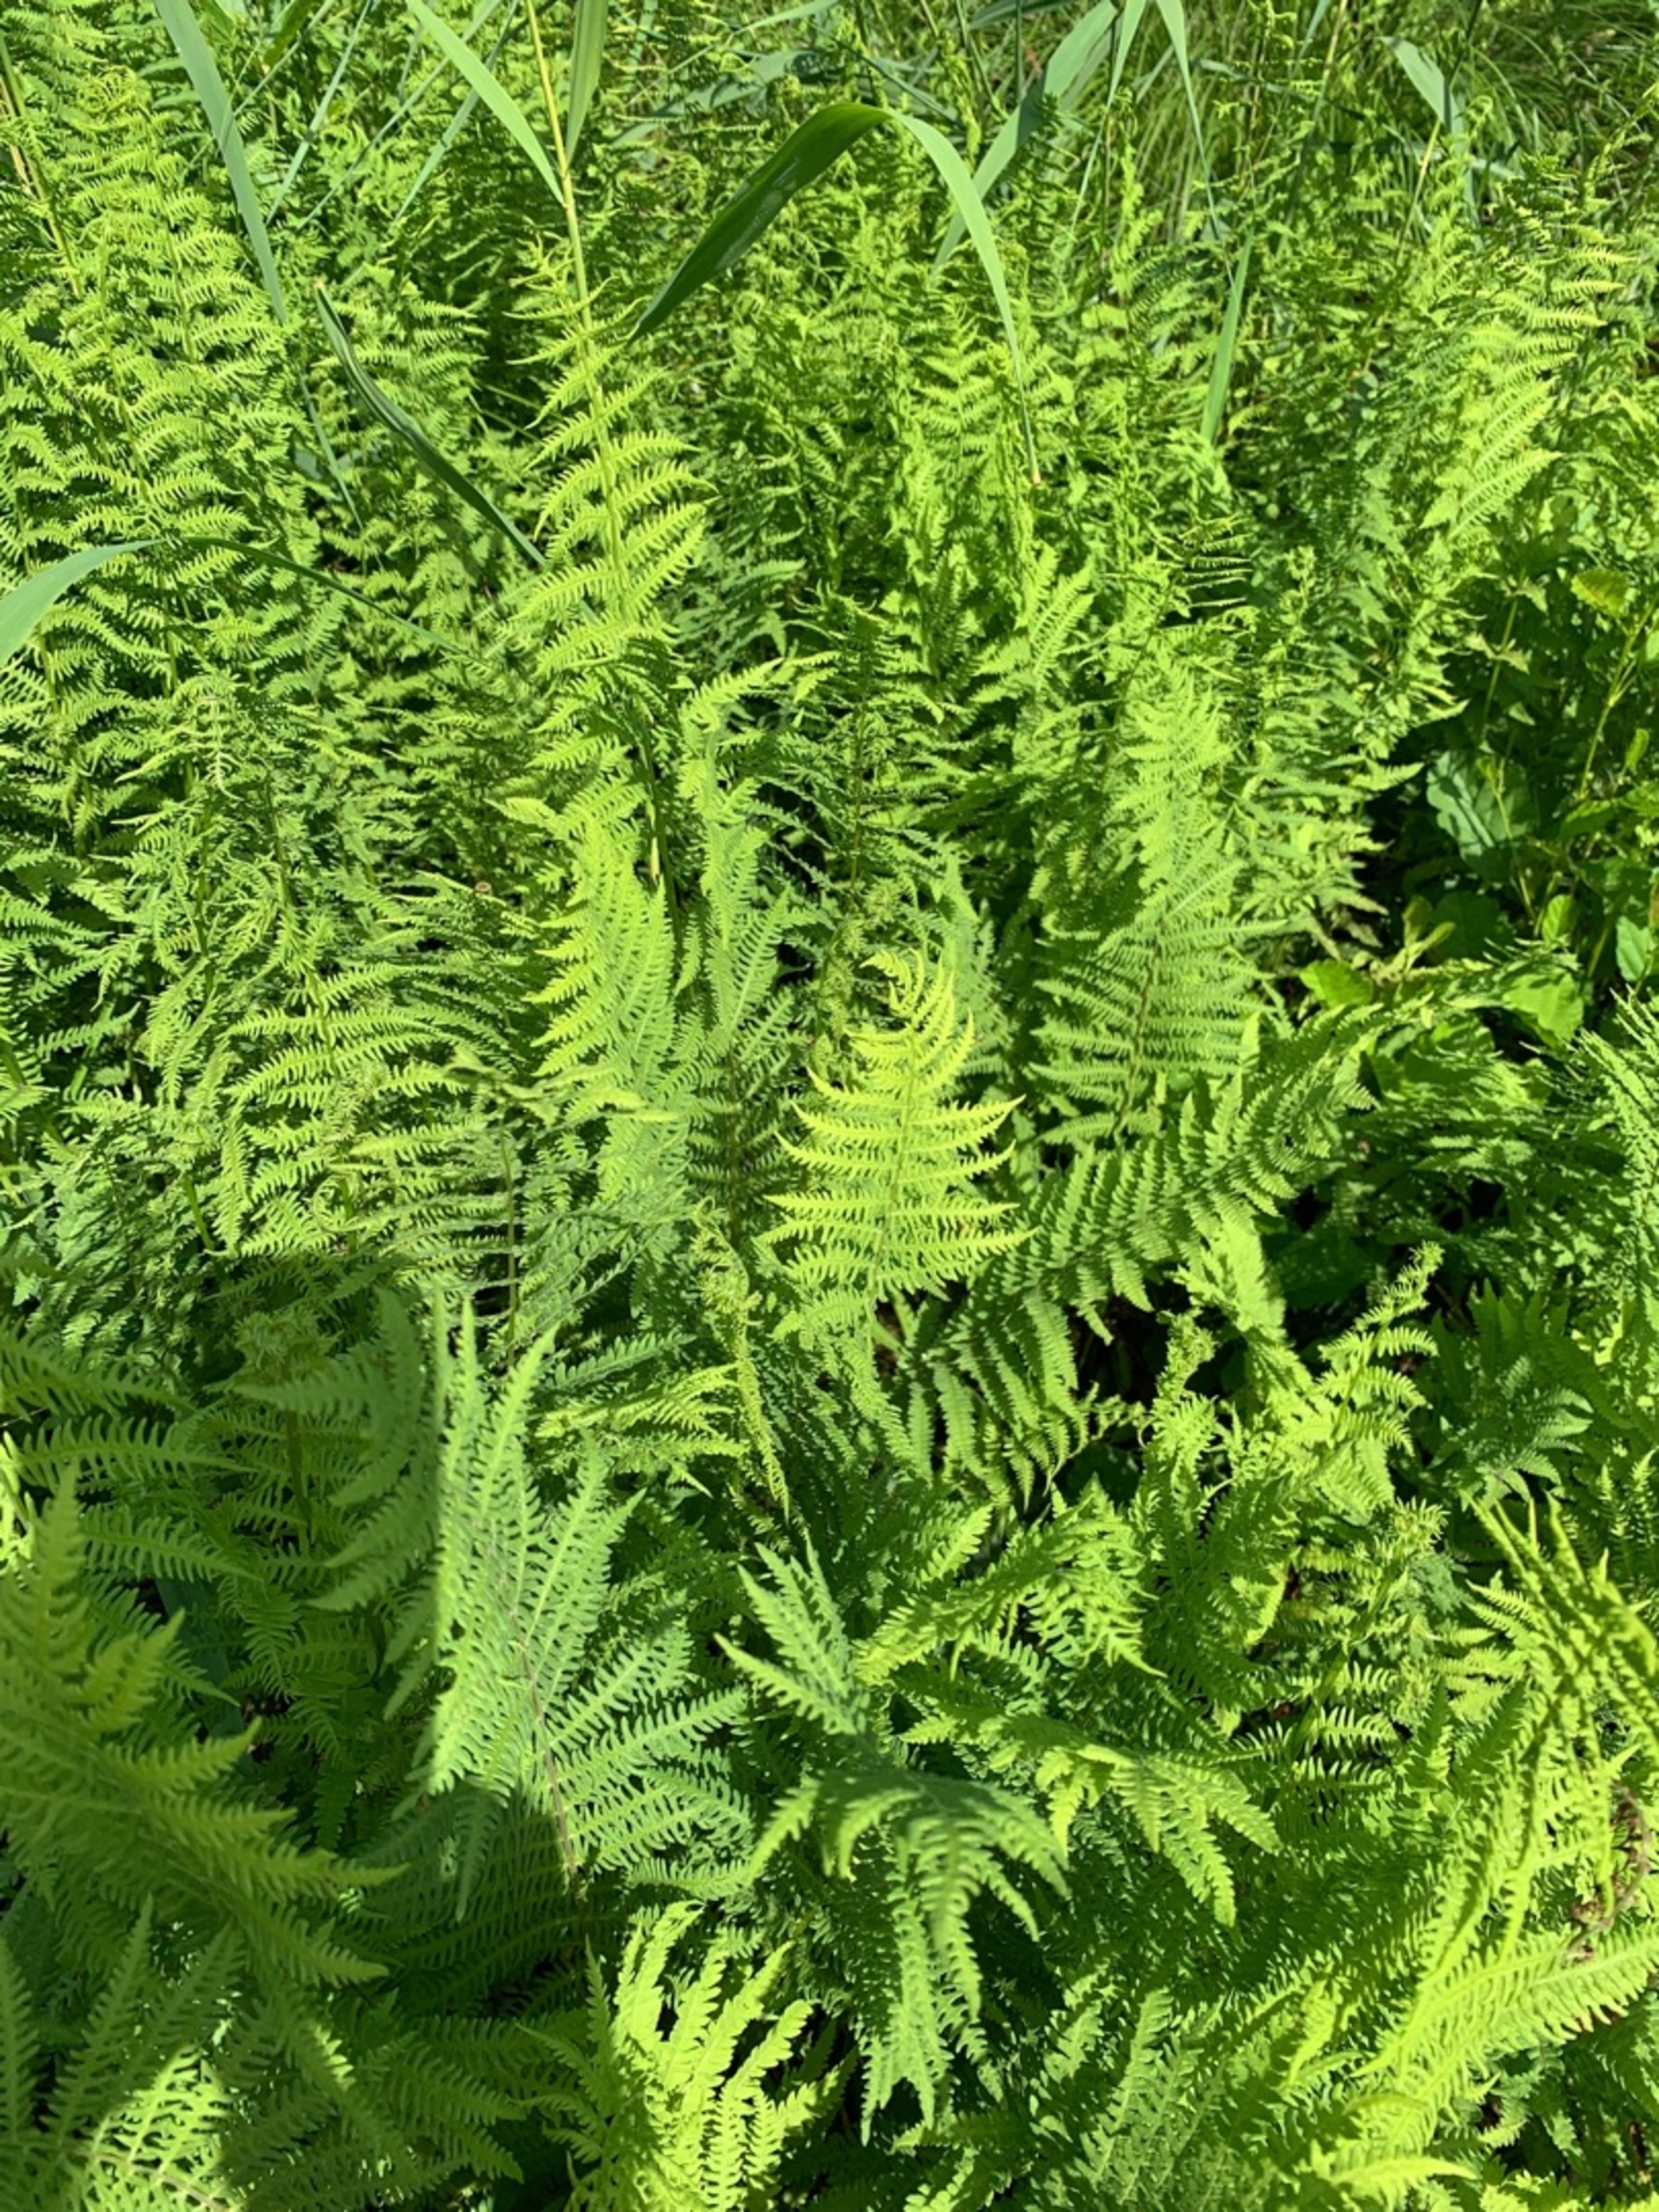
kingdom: Plantae
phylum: Tracheophyta
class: Polypodiopsida
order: Polypodiales
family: Thelypteridaceae
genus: Thelypteris
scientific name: Thelypteris palustris
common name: Kærmangeløv
